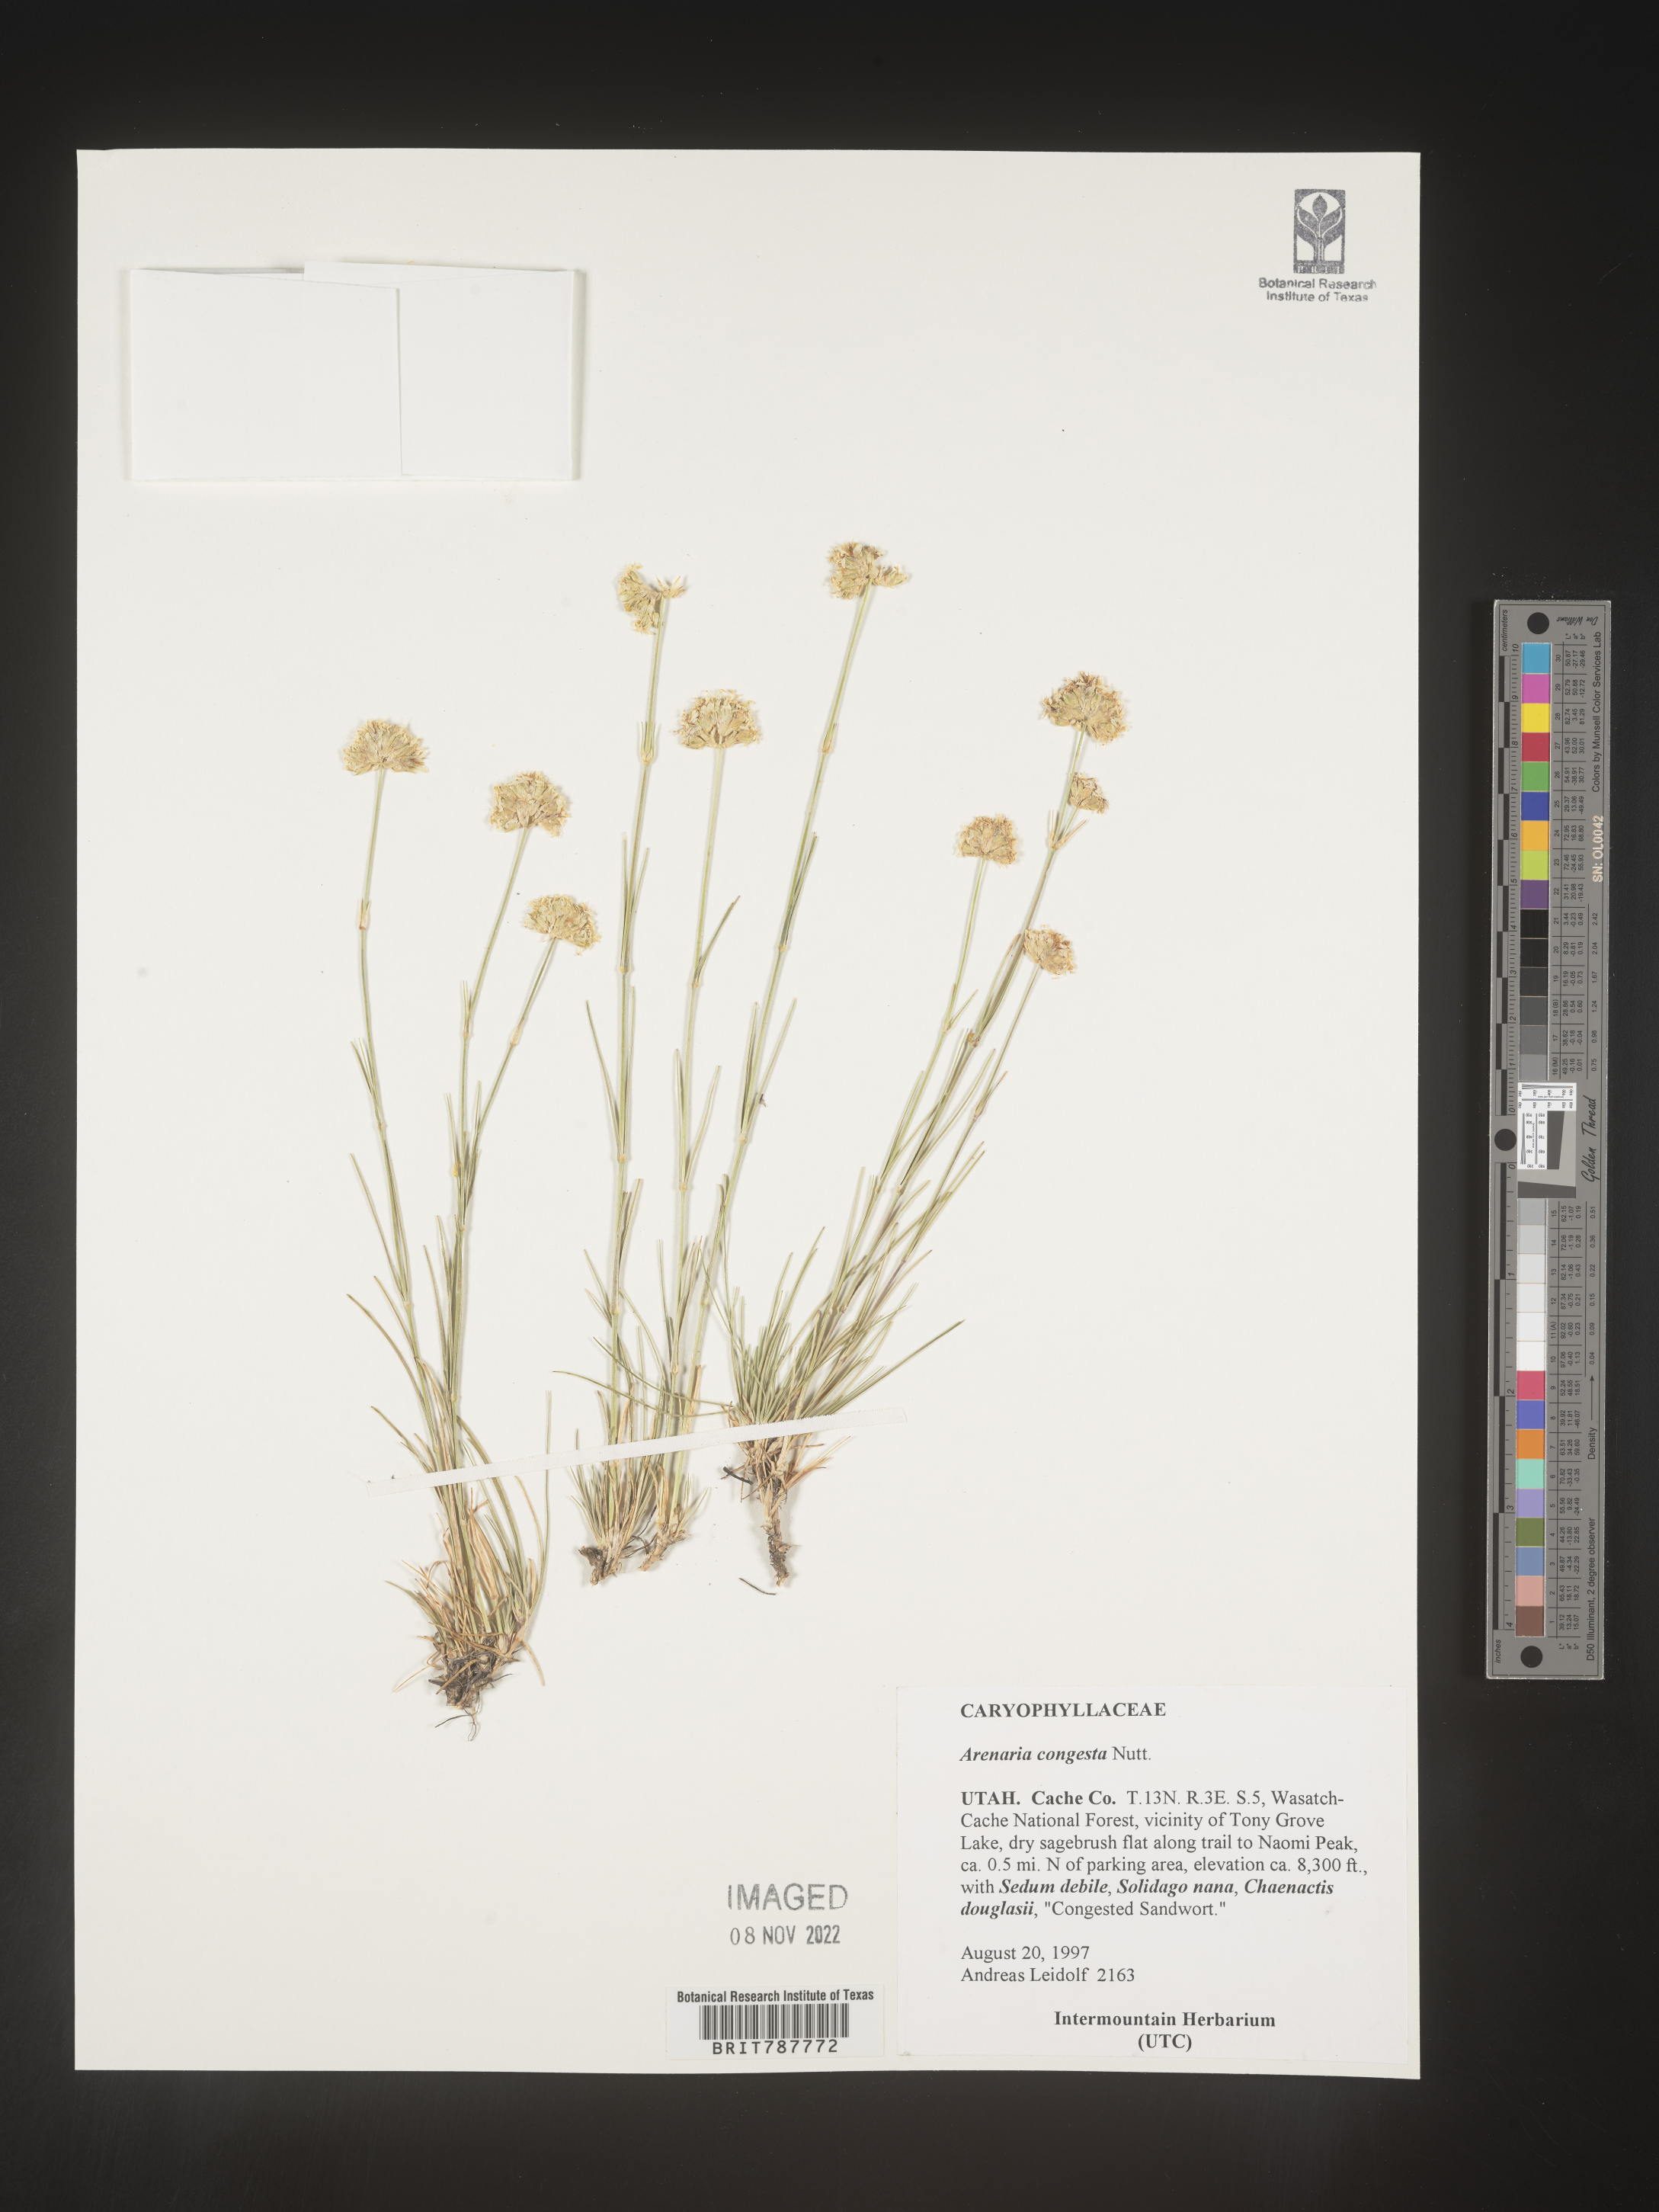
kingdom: Plantae
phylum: Tracheophyta
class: Magnoliopsida
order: Caryophyllales
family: Caryophyllaceae
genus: Eremogone
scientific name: Eremogone congesta
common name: Ballhead sandwort
